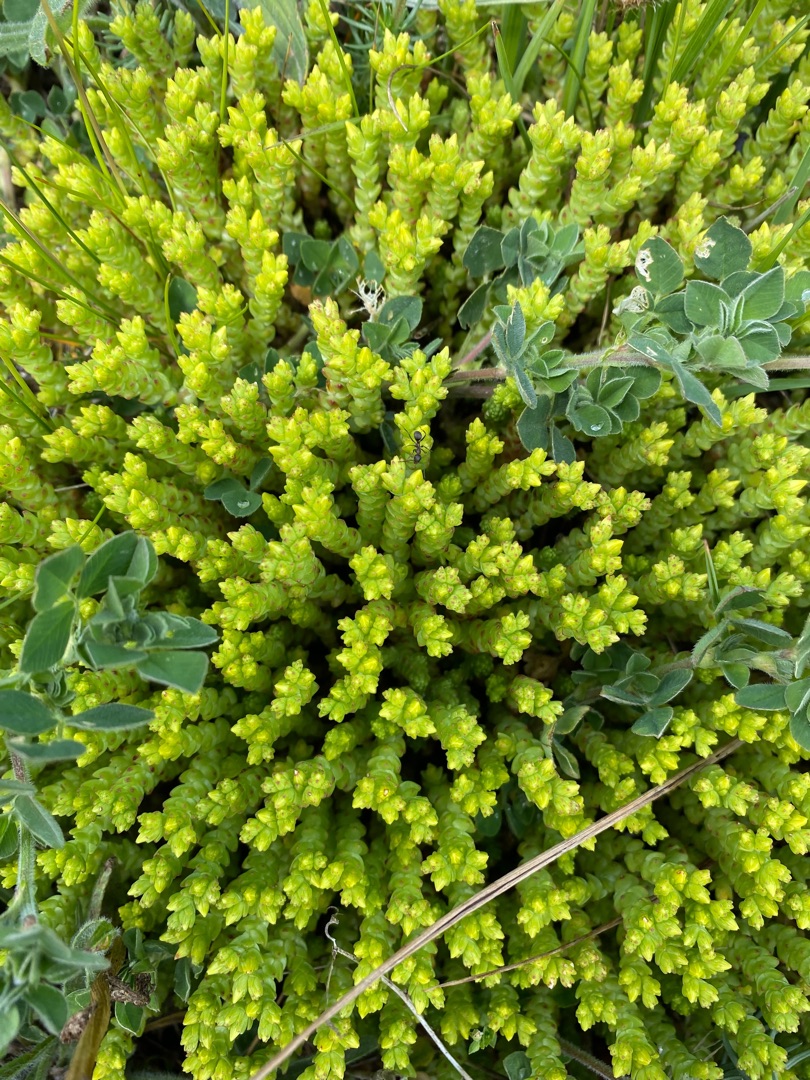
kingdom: Plantae
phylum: Tracheophyta
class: Magnoliopsida
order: Saxifragales
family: Crassulaceae
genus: Sedum
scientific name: Sedum acre
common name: Bidende stenurt
